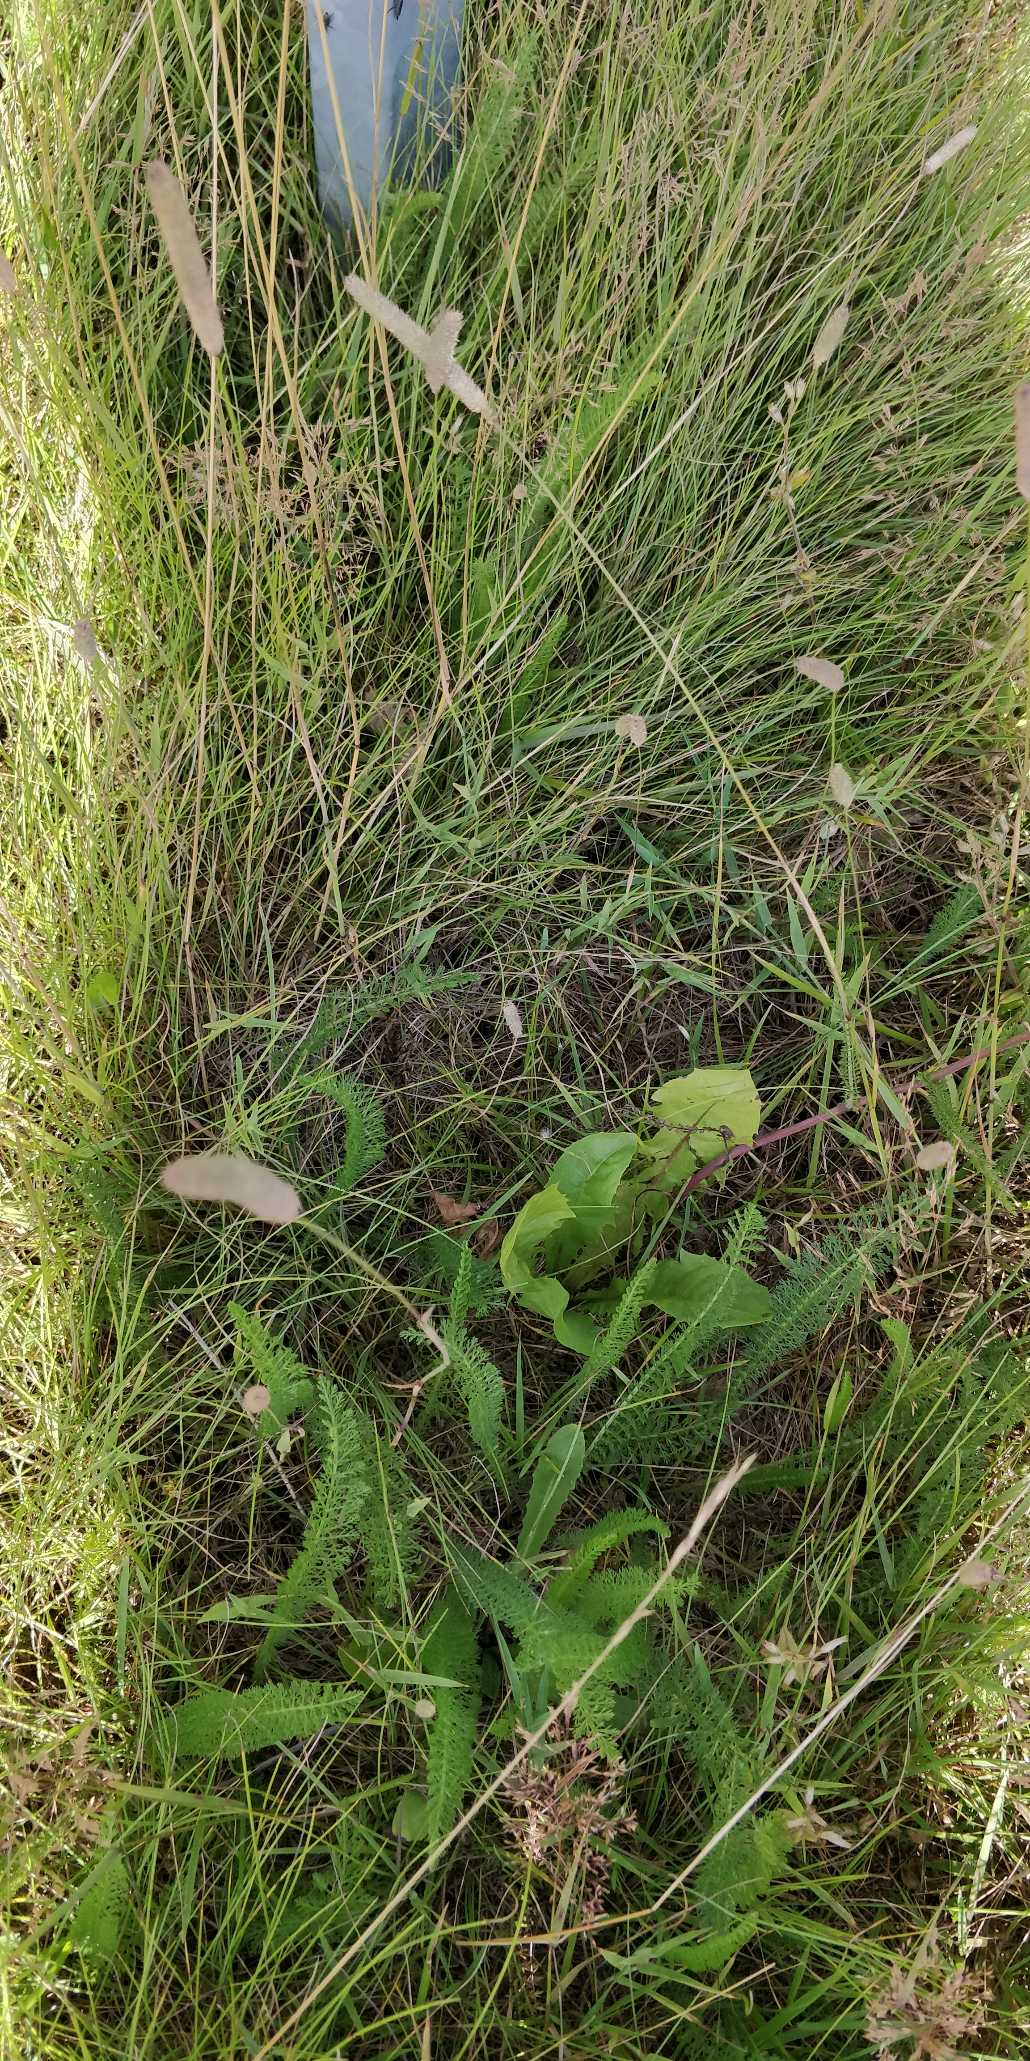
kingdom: Plantae
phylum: Tracheophyta
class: Liliopsida
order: Poales
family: Poaceae
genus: Phleum
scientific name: Phleum pratense
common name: Eng-rottehale
